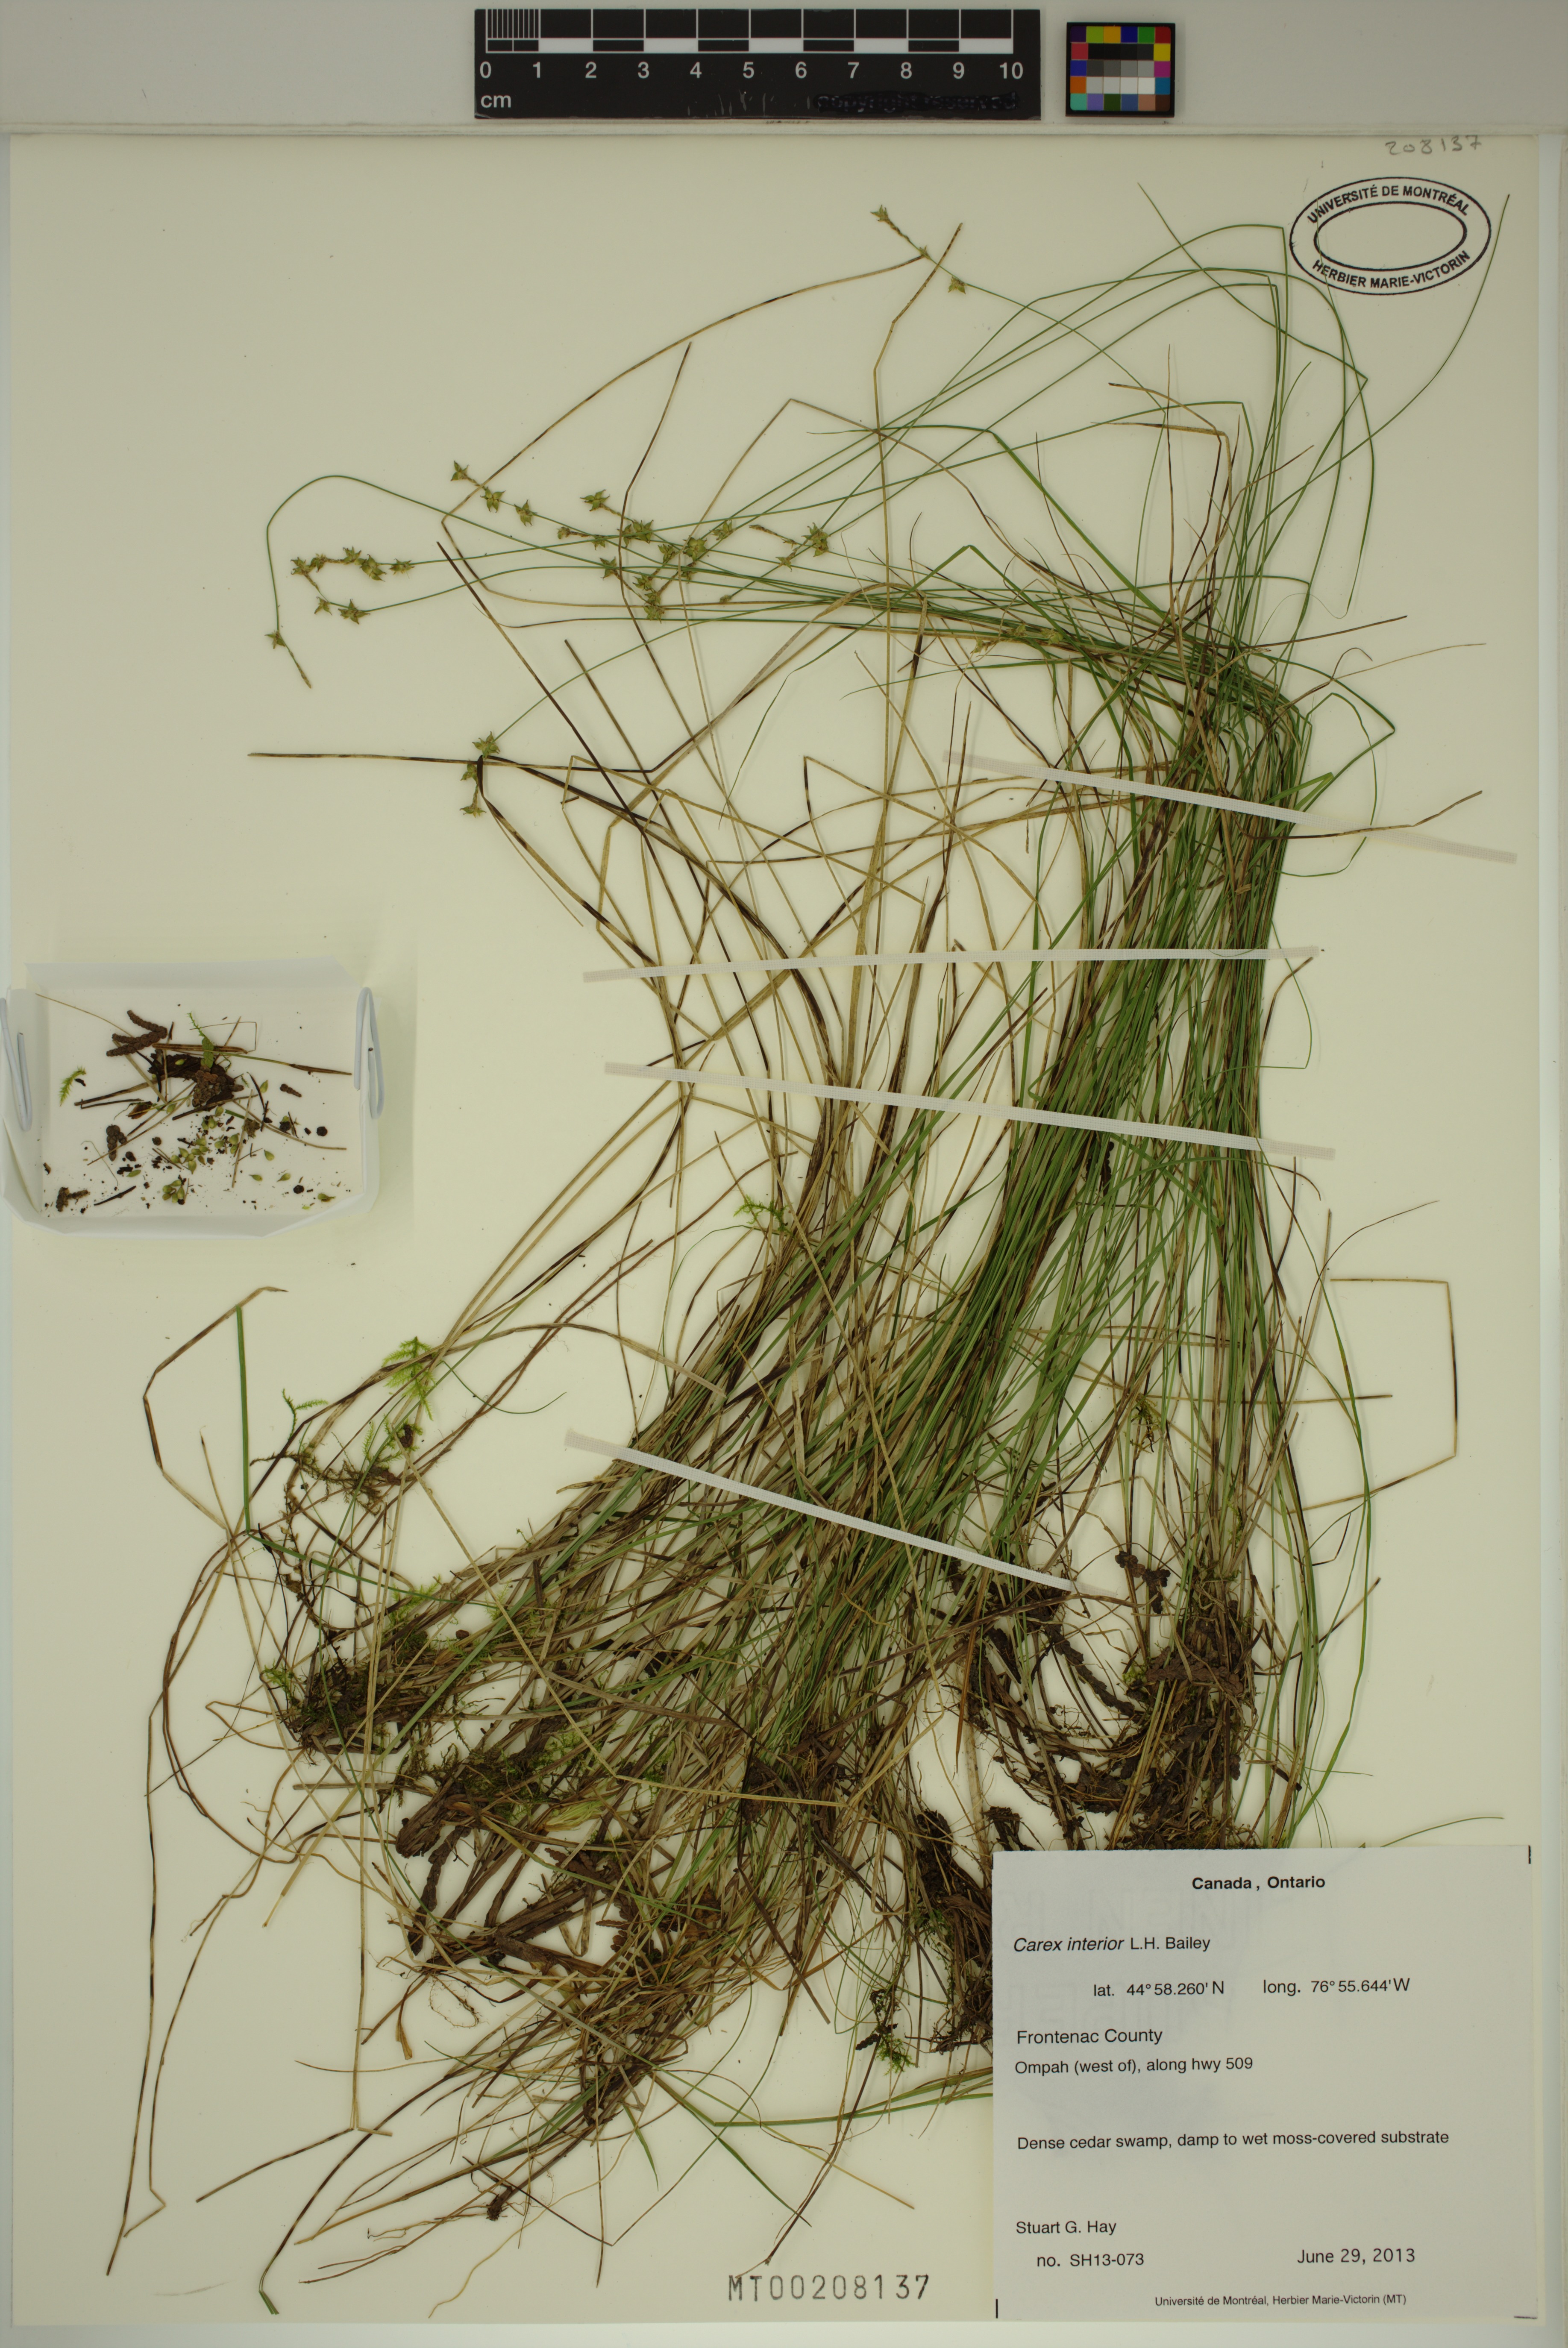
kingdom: Plantae
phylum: Tracheophyta
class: Liliopsida
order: Poales
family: Cyperaceae
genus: Carex
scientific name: Carex interior
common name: Inland sedge
